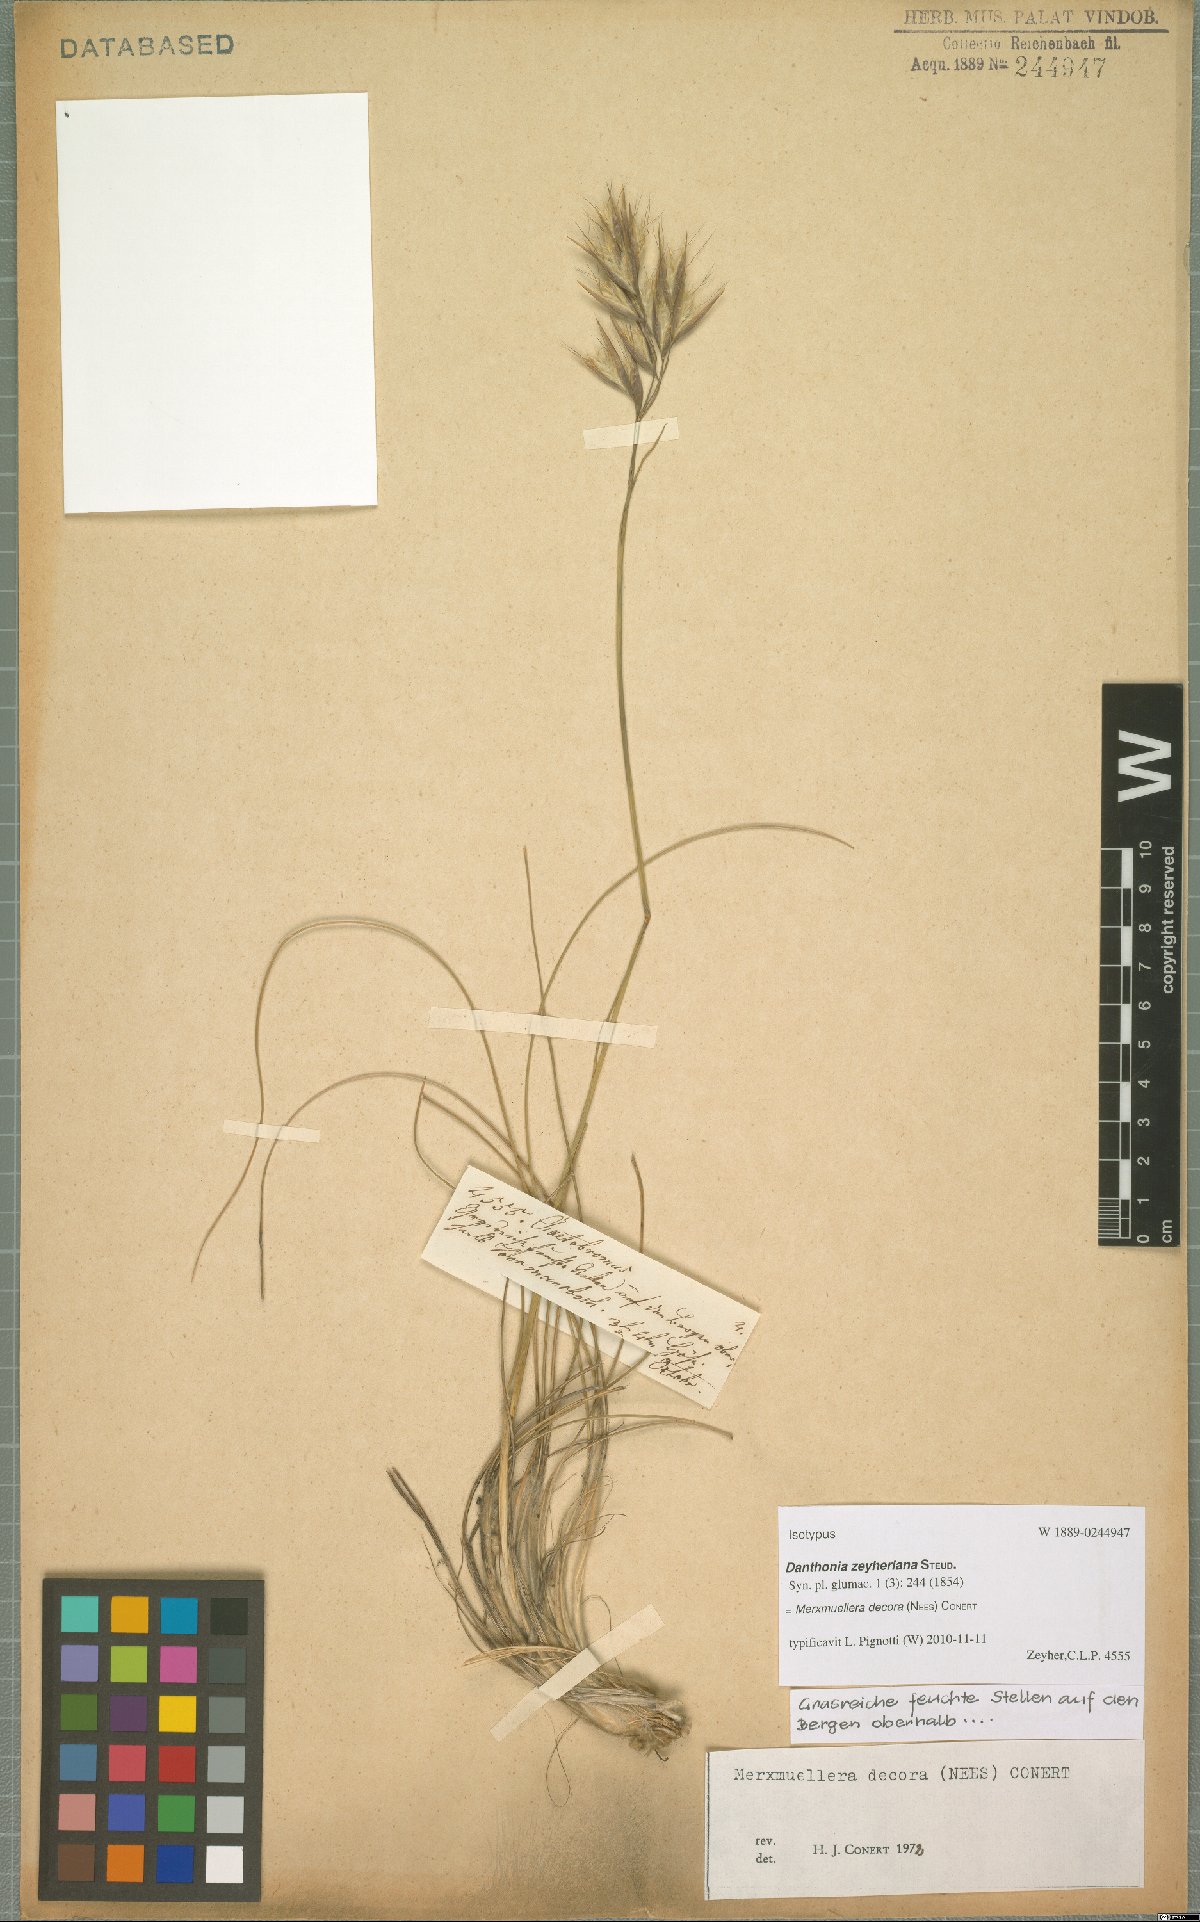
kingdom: Plantae
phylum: Tracheophyta
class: Liliopsida
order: Poales
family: Poaceae
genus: Geochloa
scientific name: Geochloa decora
